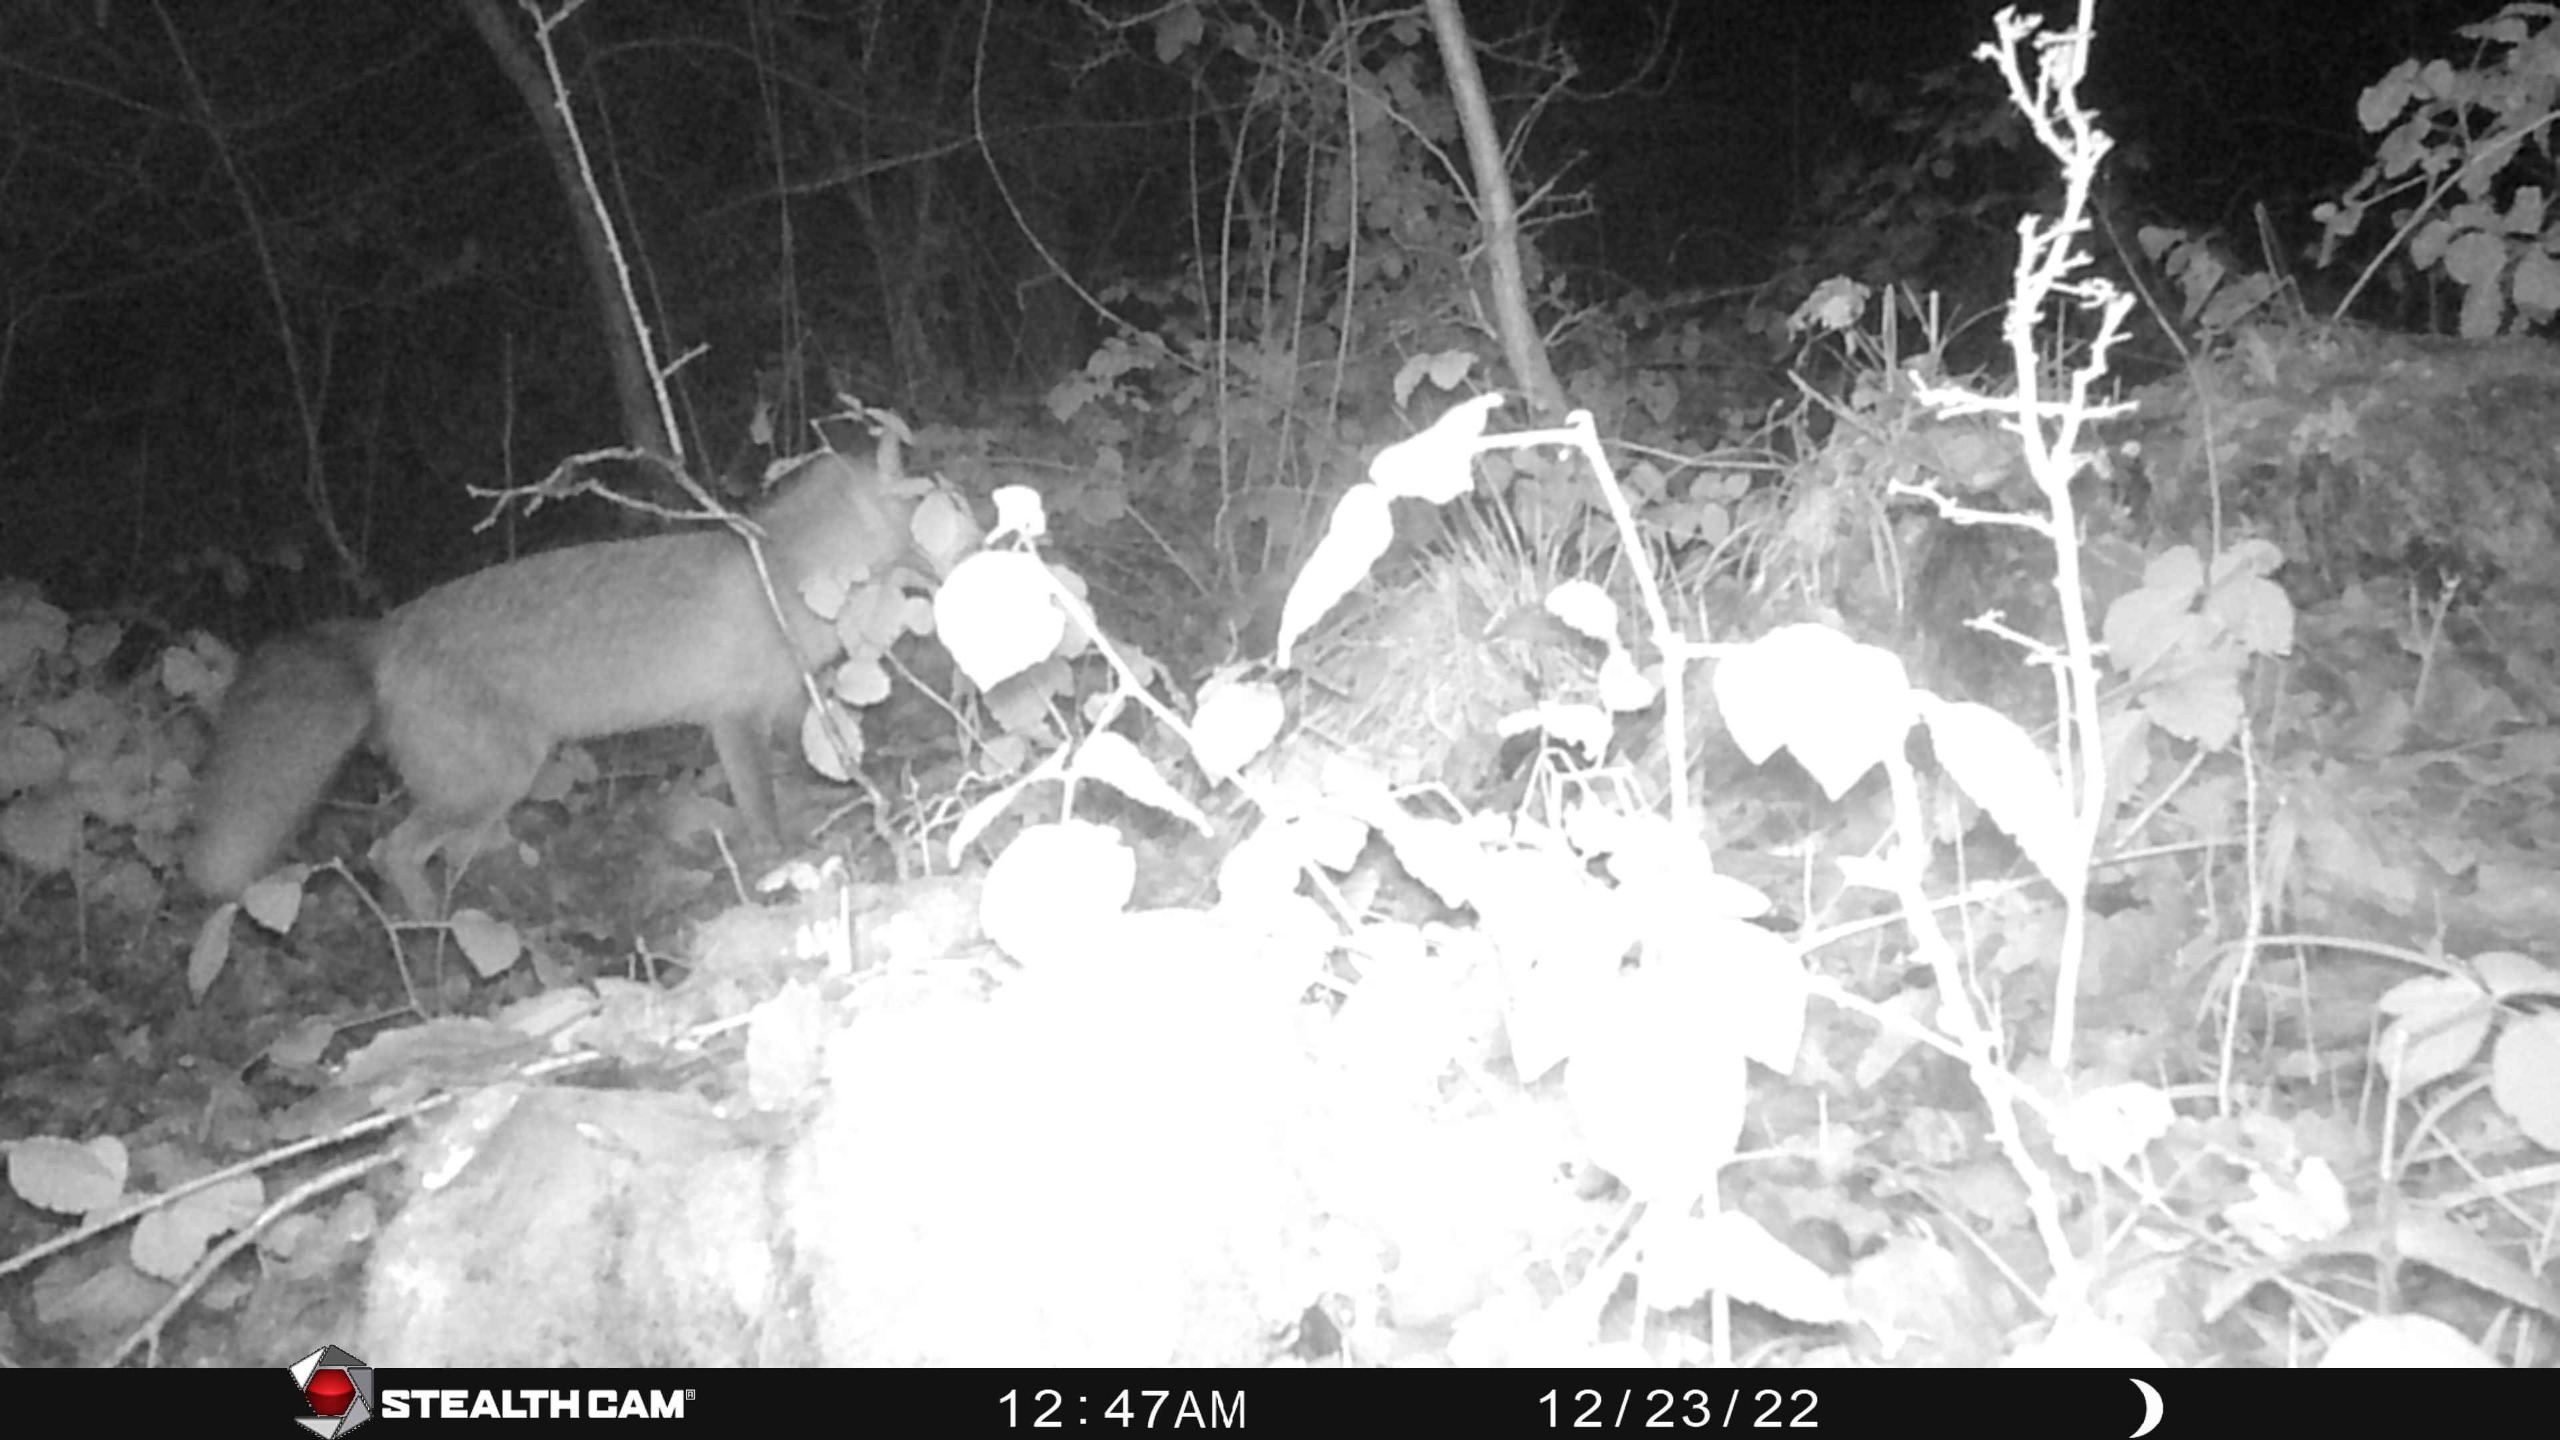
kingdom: Animalia
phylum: Chordata
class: Mammalia
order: Carnivora
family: Canidae
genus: Vulpes
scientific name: Vulpes vulpes
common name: Ræv
